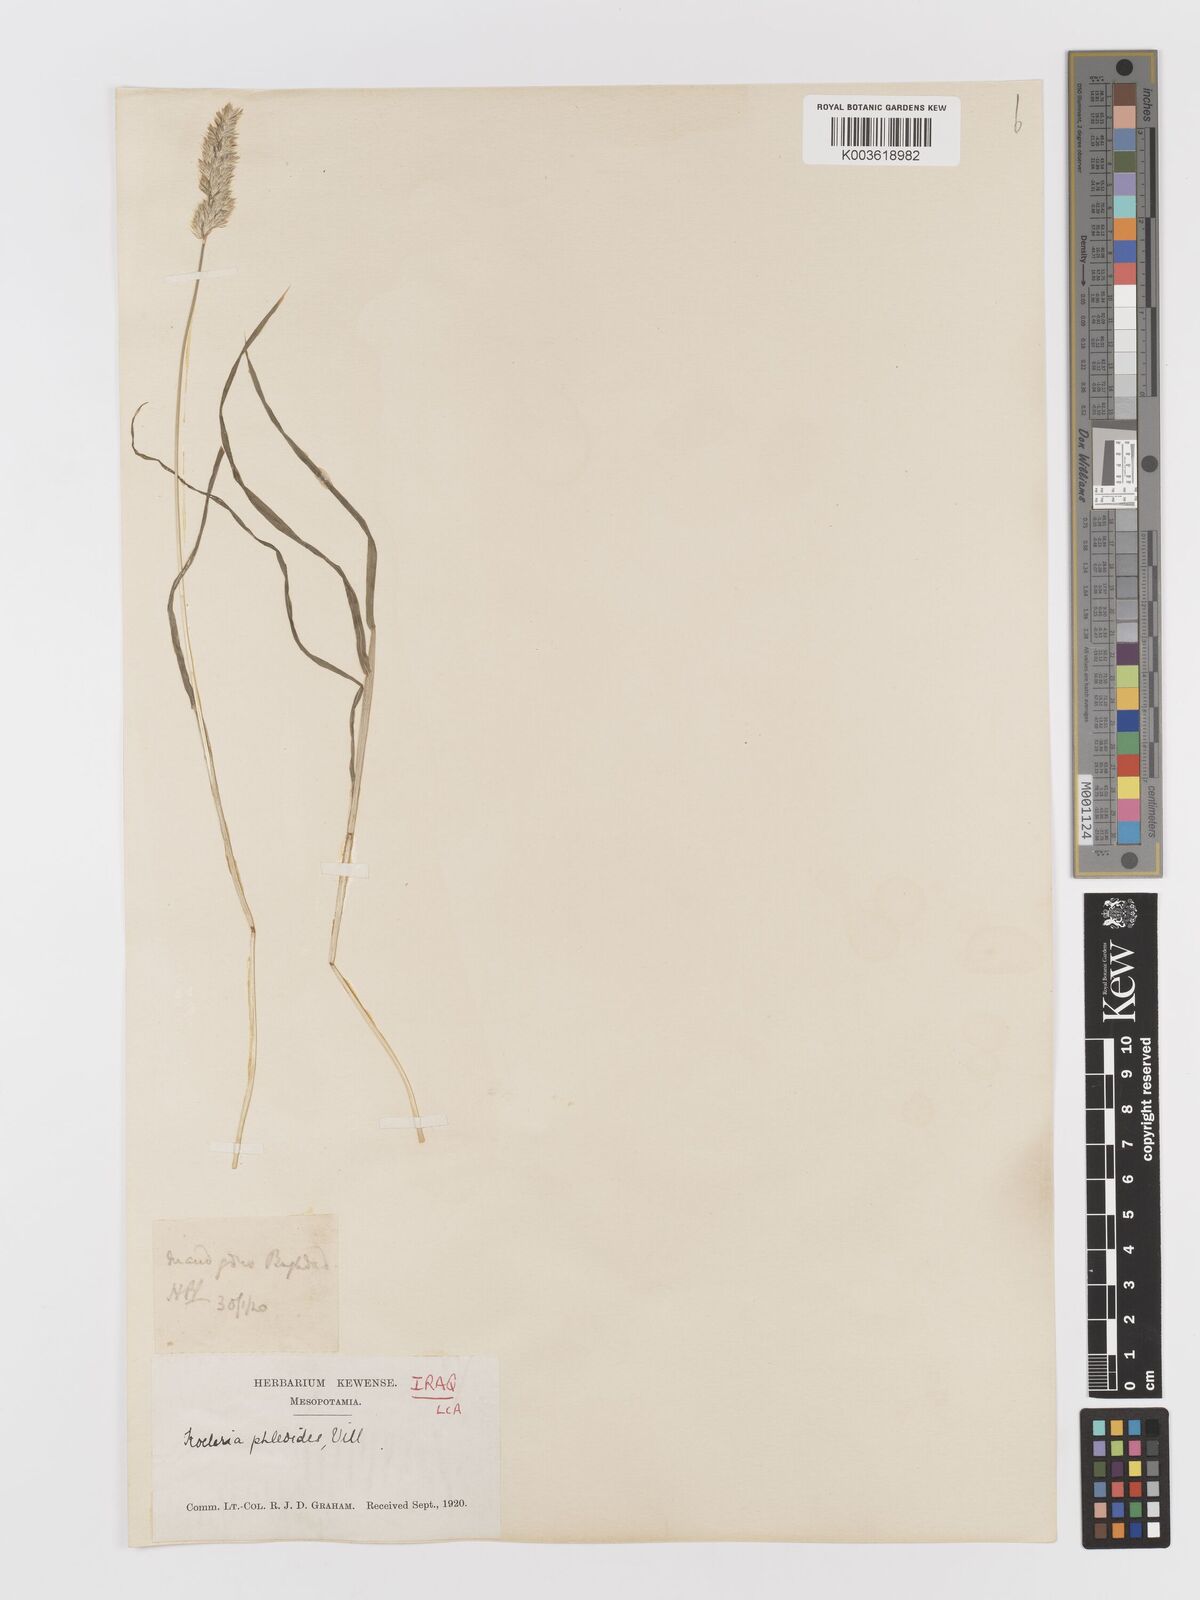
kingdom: Plantae
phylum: Tracheophyta
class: Liliopsida
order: Poales
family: Poaceae
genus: Rostraria
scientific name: Rostraria cristata
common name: Mediterranean hair-grass
